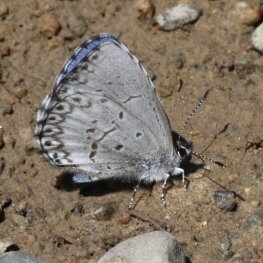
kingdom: Animalia
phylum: Arthropoda
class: Insecta
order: Lepidoptera
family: Lycaenidae
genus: Cyaniris
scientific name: Cyaniris neglecta
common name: Summer Azure
